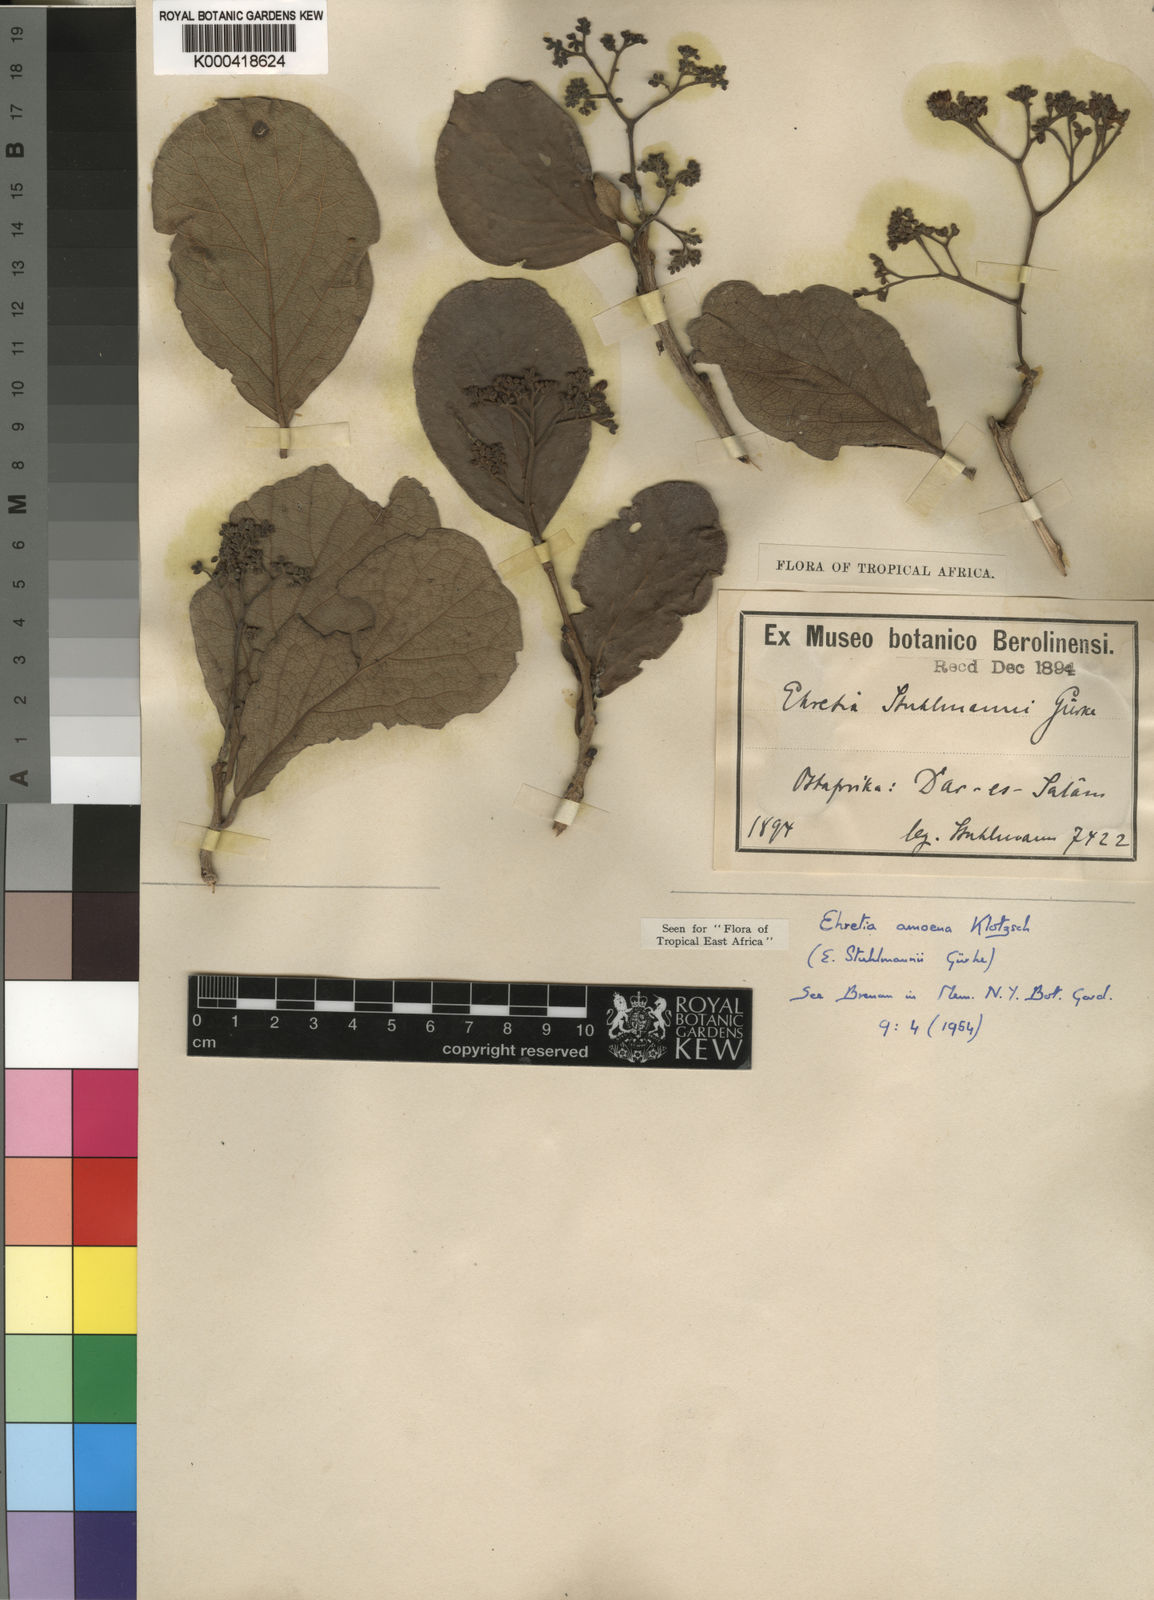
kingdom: Plantae
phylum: Tracheophyta
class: Magnoliopsida
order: Boraginales
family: Ehretiaceae
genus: Ehretia
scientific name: Ehretia amoena
